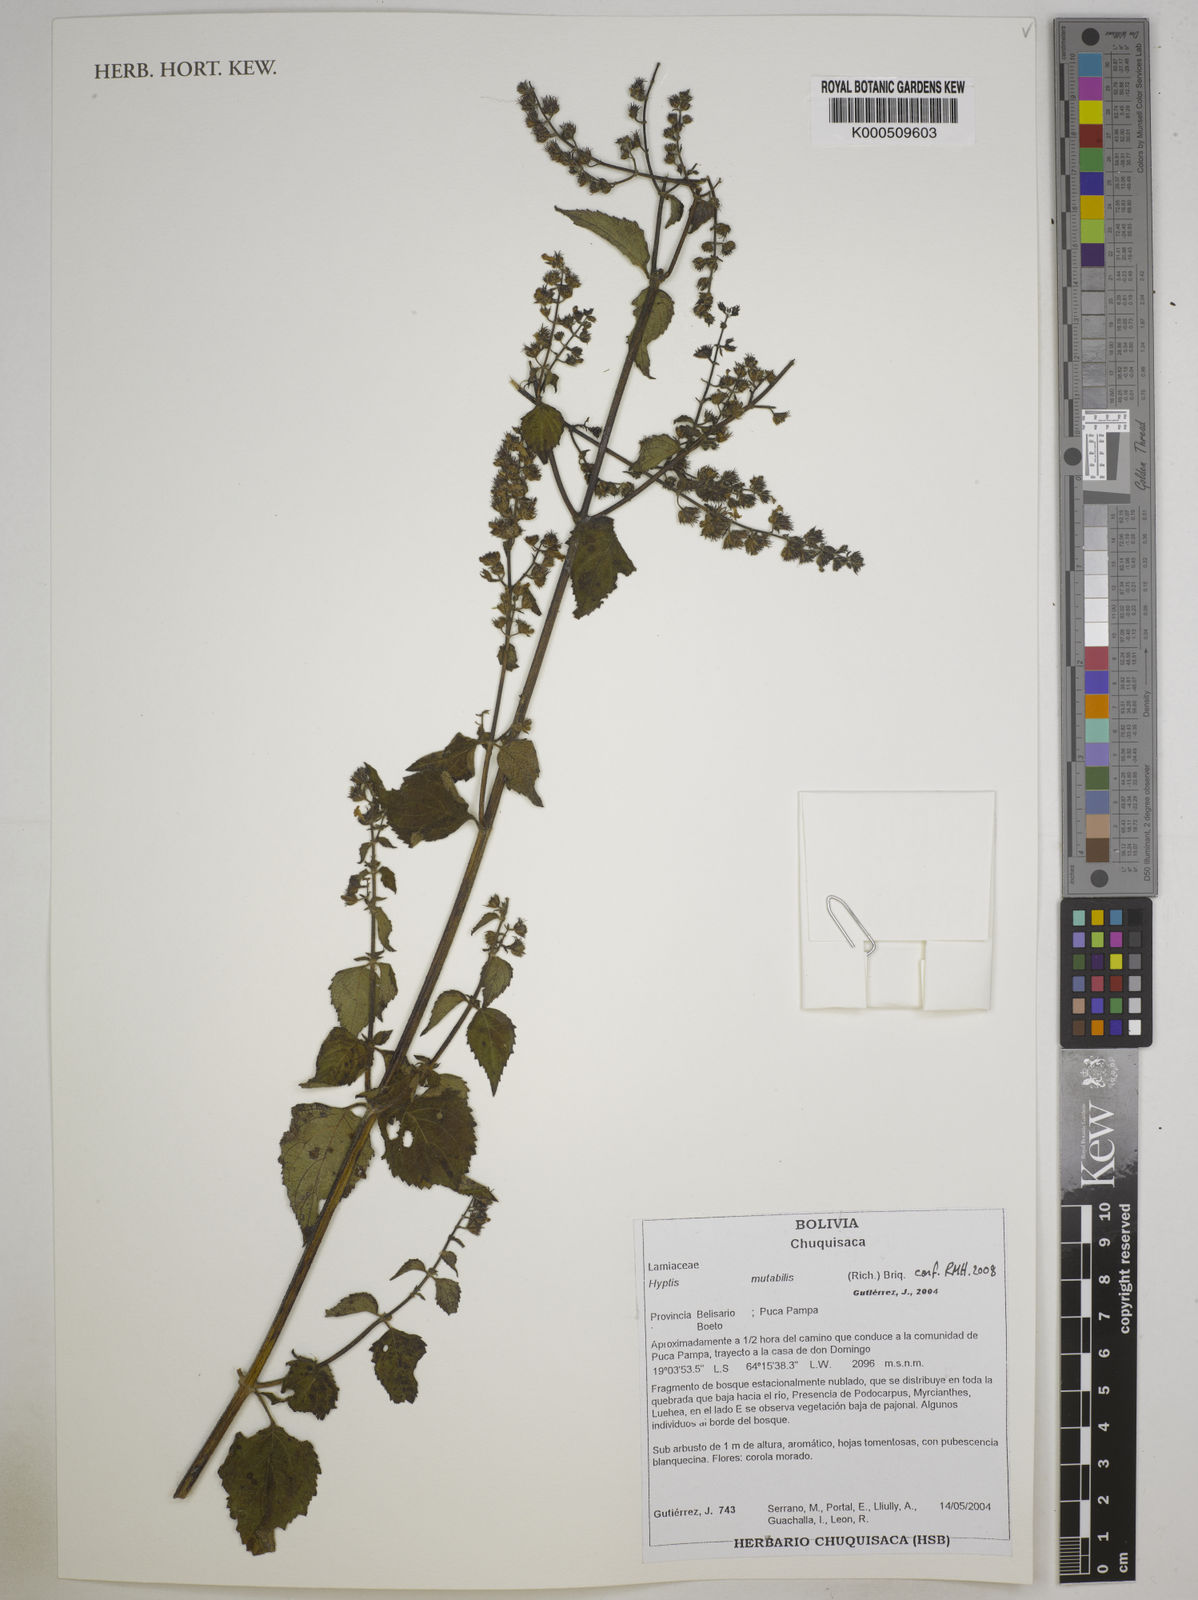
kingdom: Plantae
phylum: Tracheophyta
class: Magnoliopsida
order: Lamiales
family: Lamiaceae
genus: Cantinoa
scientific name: Cantinoa mutabilis
